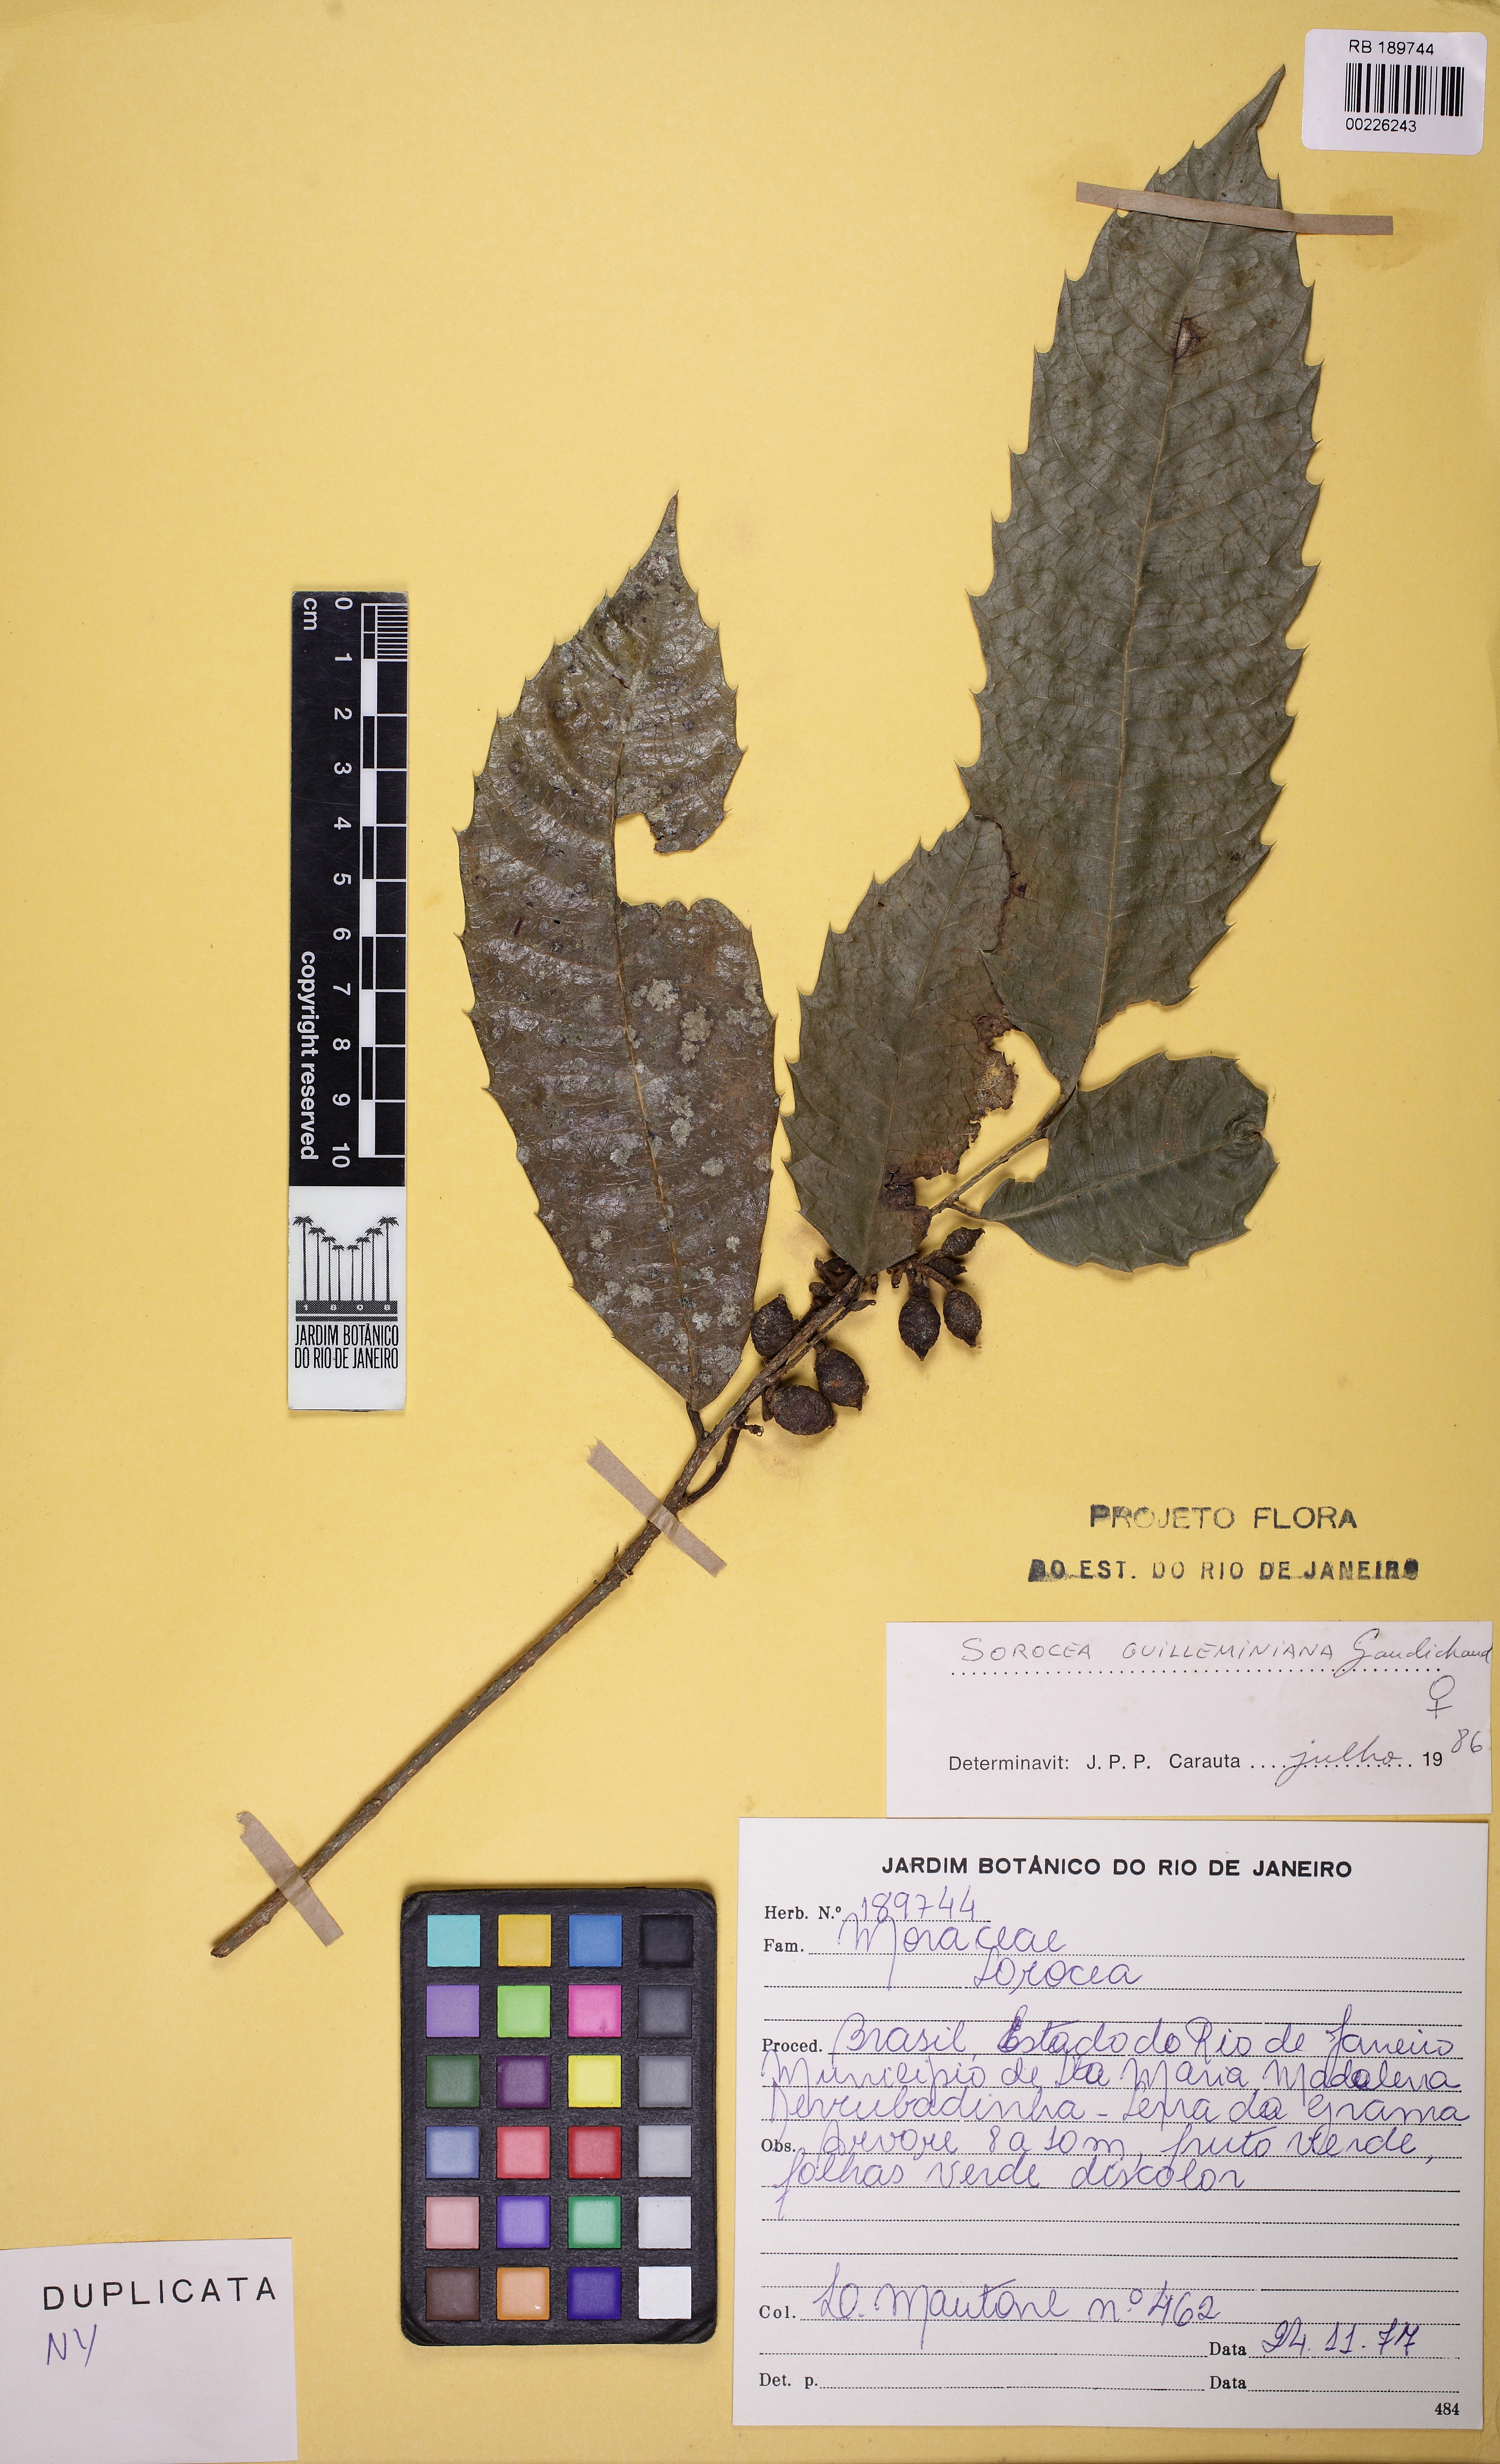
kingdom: Plantae
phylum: Tracheophyta
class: Magnoliopsida
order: Rosales
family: Moraceae
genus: Sorocea
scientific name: Sorocea guilleminiana
